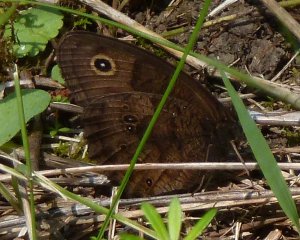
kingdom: Animalia
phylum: Arthropoda
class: Insecta
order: Lepidoptera
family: Nymphalidae
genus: Cercyonis
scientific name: Cercyonis pegala
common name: Common Wood-Nymph
